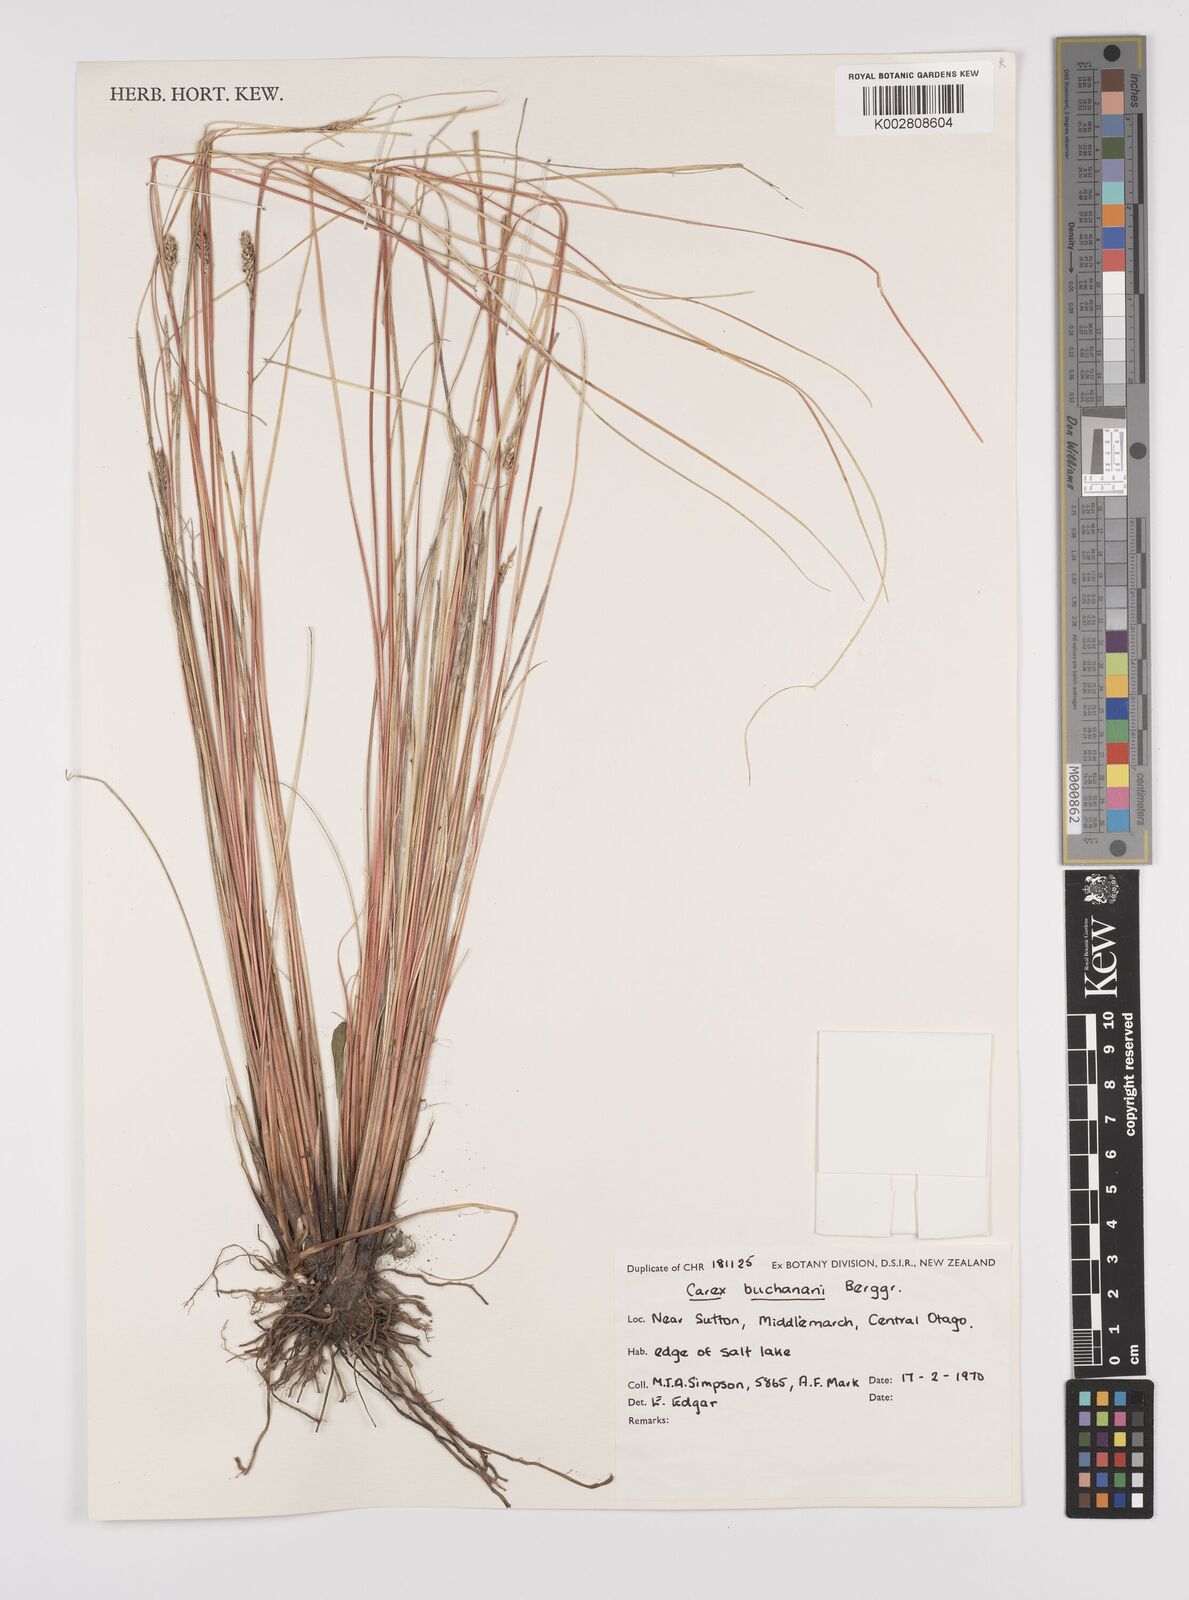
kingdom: Plantae
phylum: Tracheophyta
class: Liliopsida
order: Poales
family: Cyperaceae
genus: Carex
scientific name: Carex flagellifera
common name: Glen murray tussock
